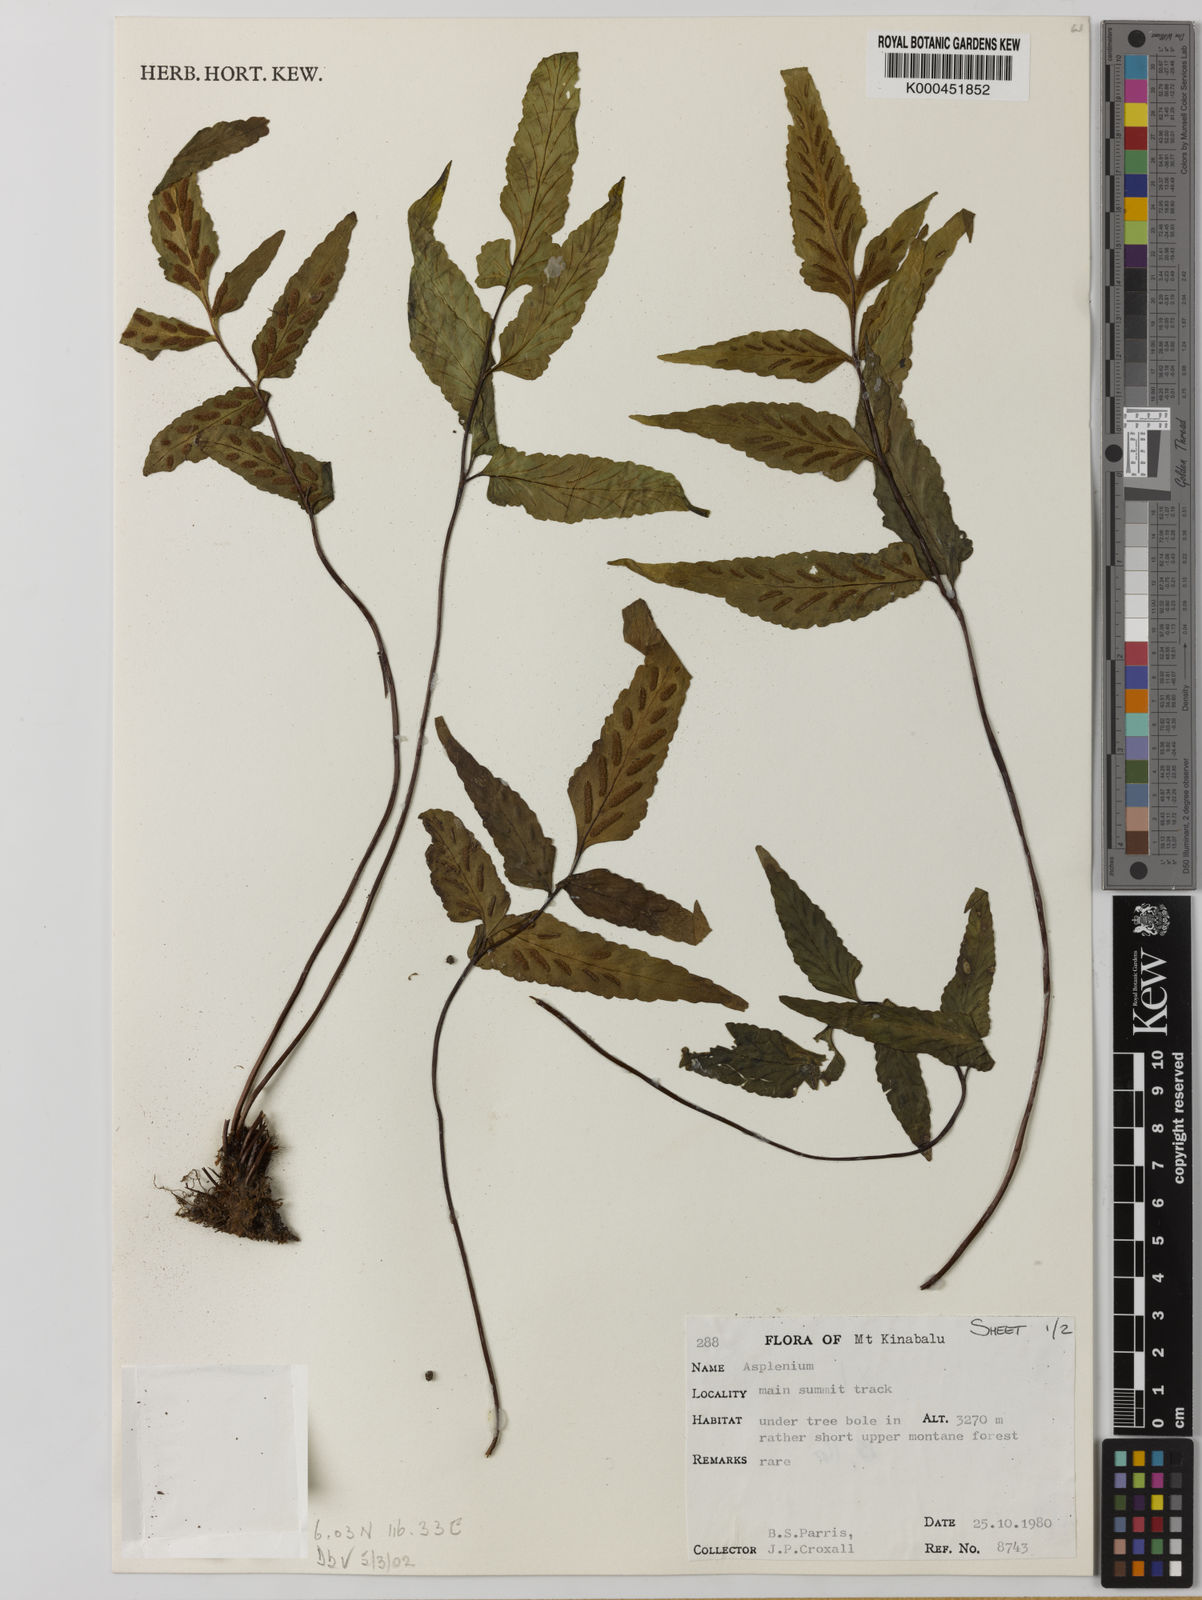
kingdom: Plantae
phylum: Tracheophyta
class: Polypodiopsida
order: Polypodiales
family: Aspleniaceae
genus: Asplenium
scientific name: Asplenium
